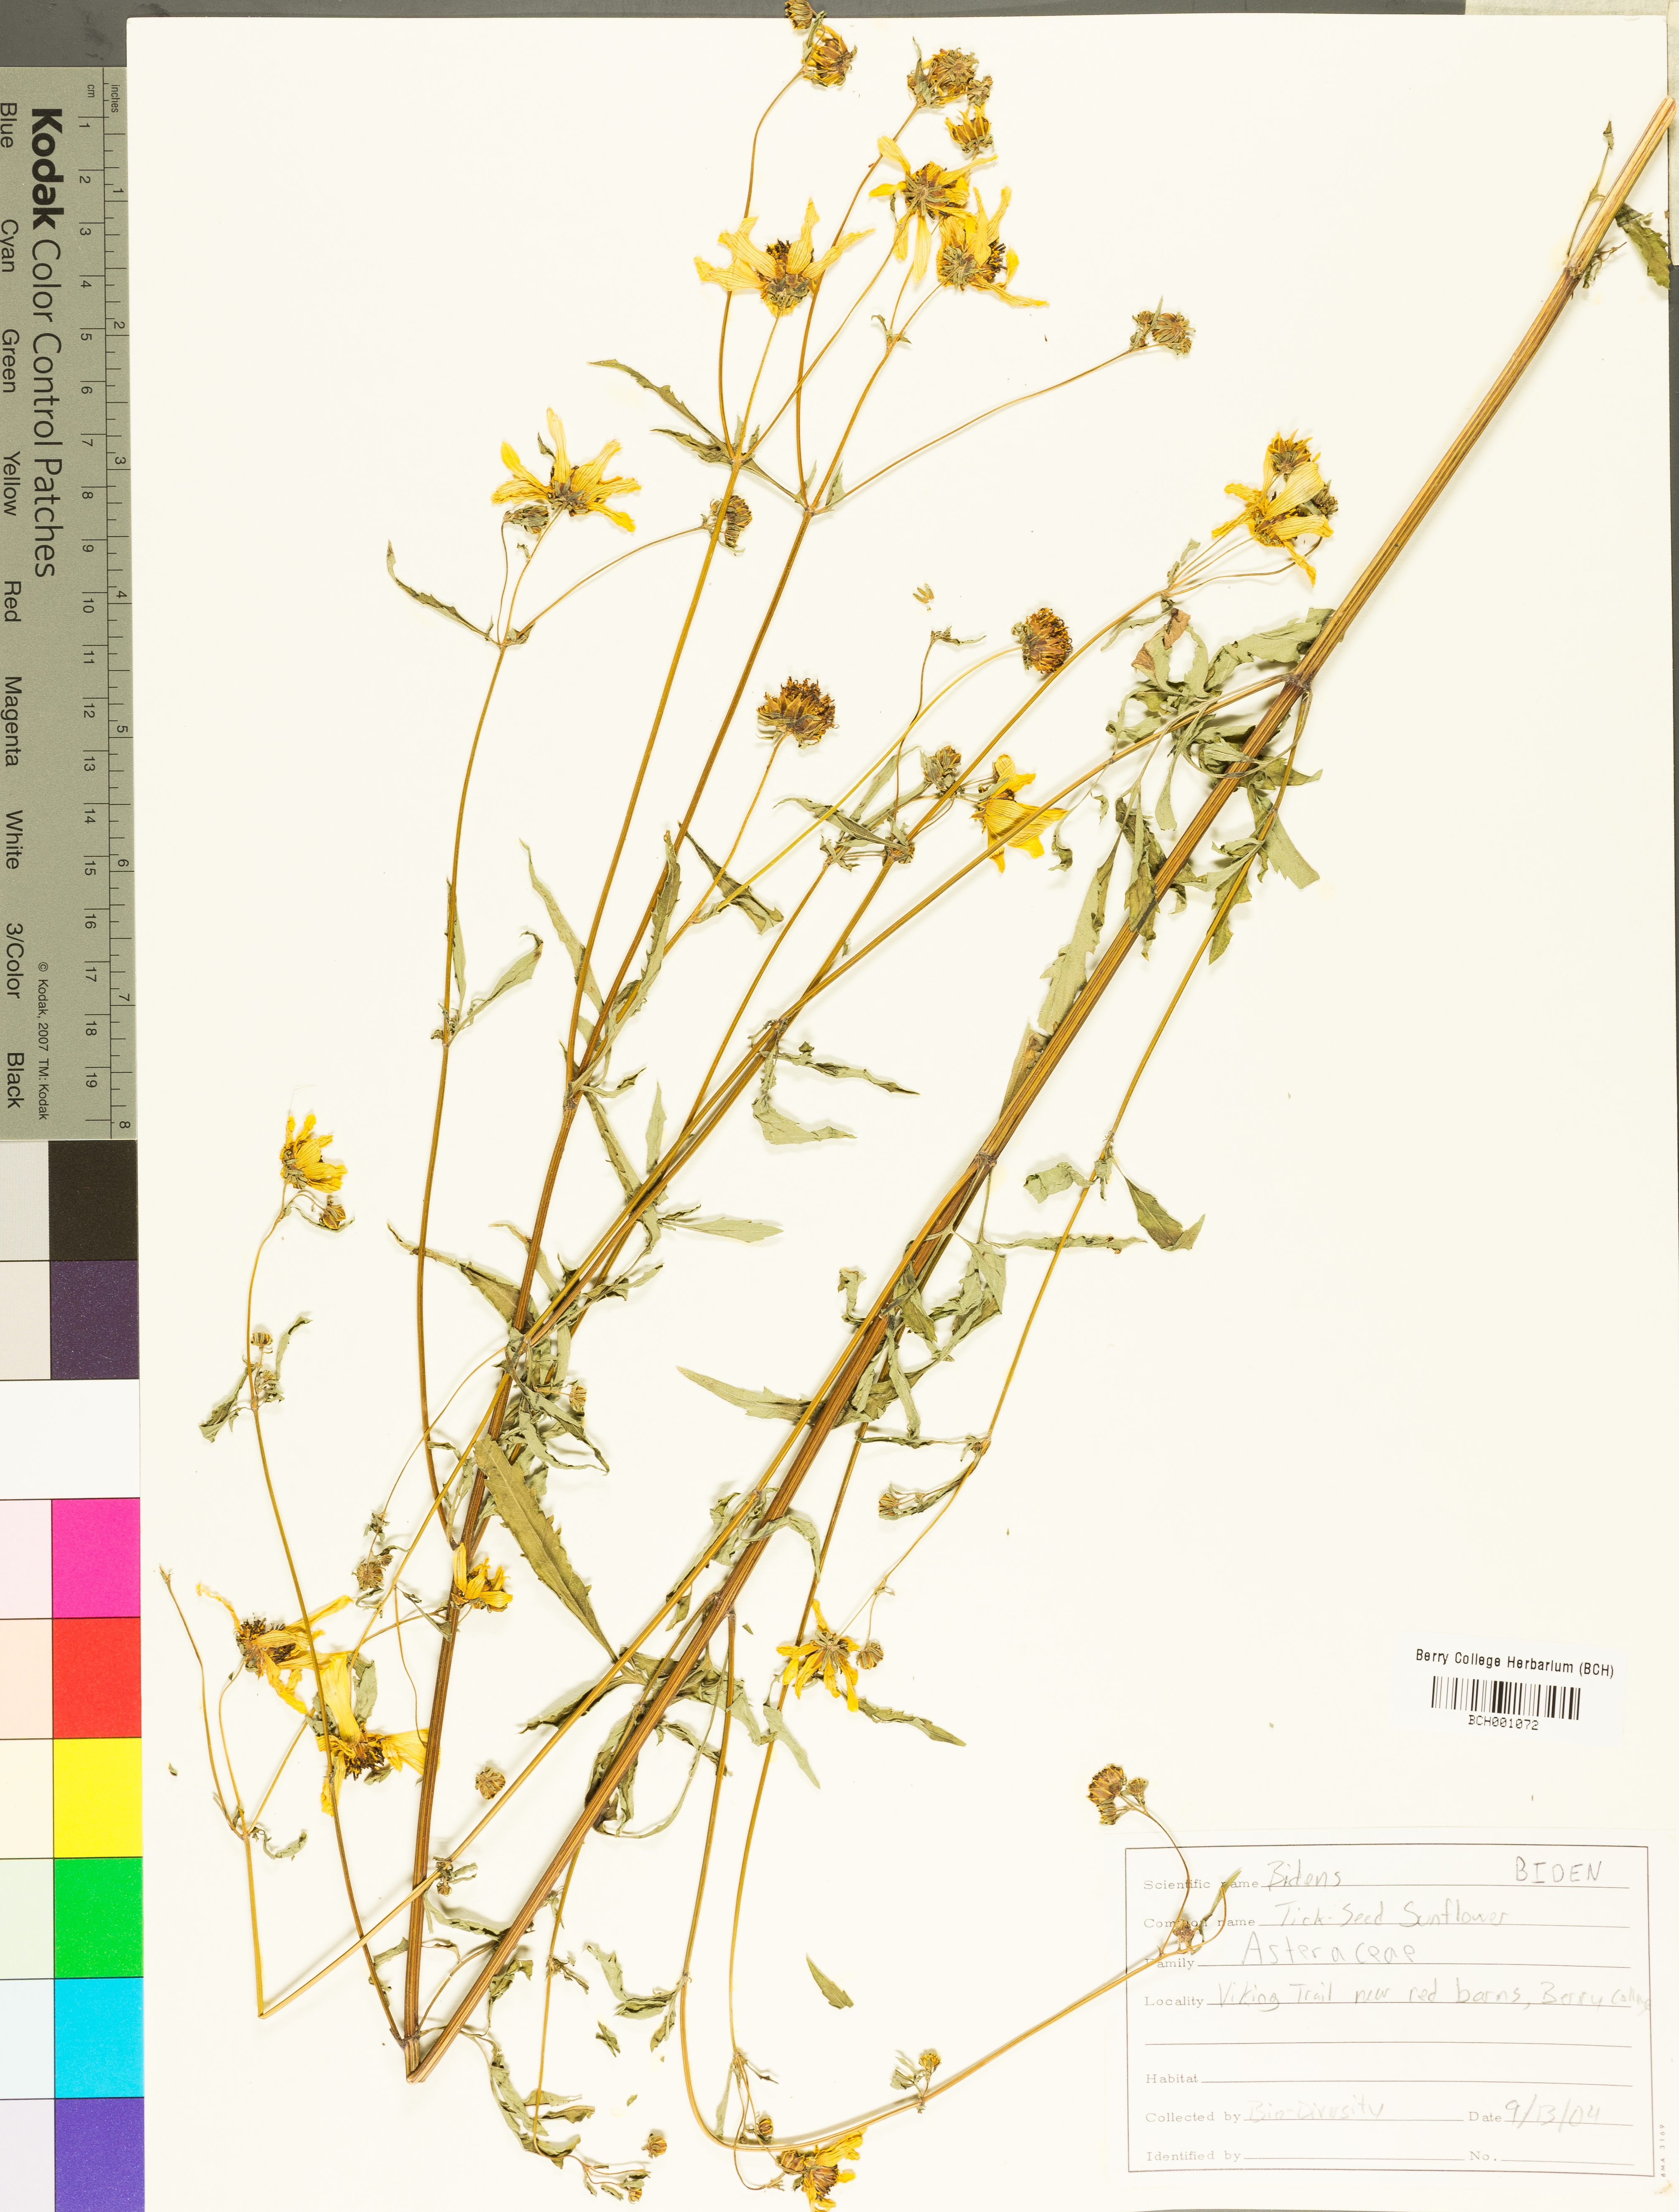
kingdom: Plantae
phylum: Tracheophyta
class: Magnoliopsida
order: Asterales
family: Asteraceae
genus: Bidens
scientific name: Bidens
